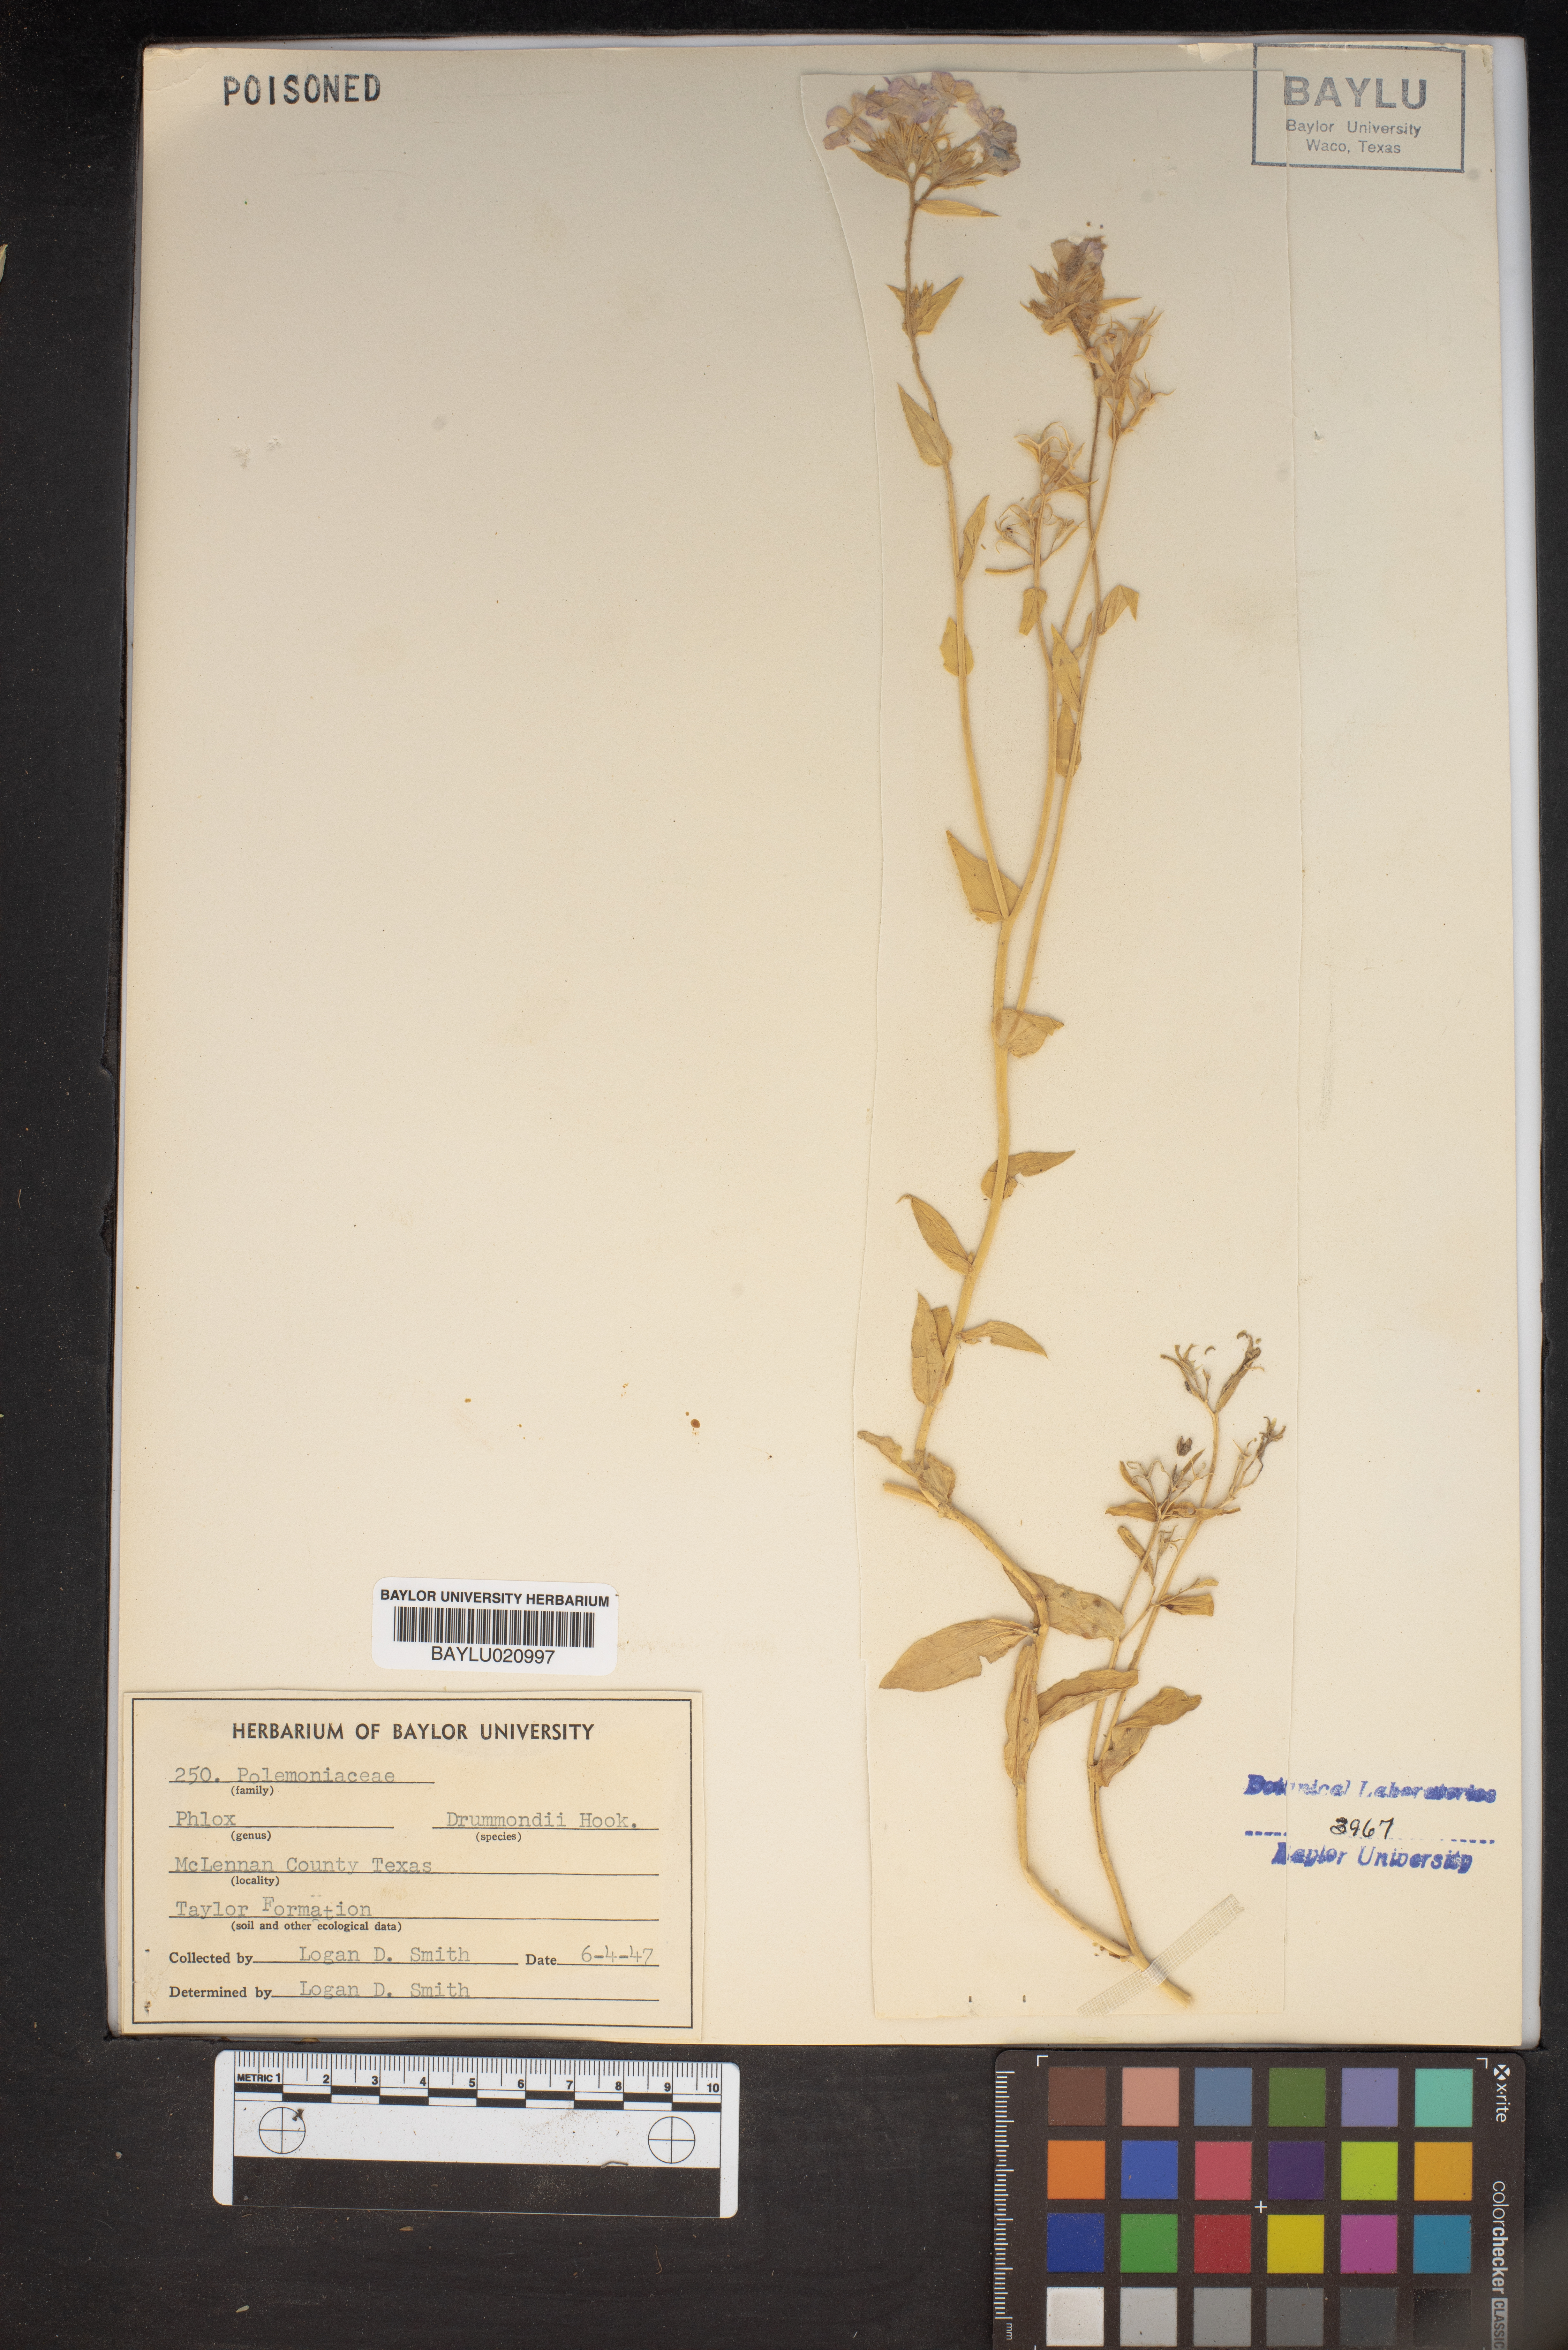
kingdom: Plantae
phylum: Tracheophyta
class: Magnoliopsida
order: Ericales
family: Polemoniaceae
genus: Phlox
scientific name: Phlox drummondii
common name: Drummond's phlox
